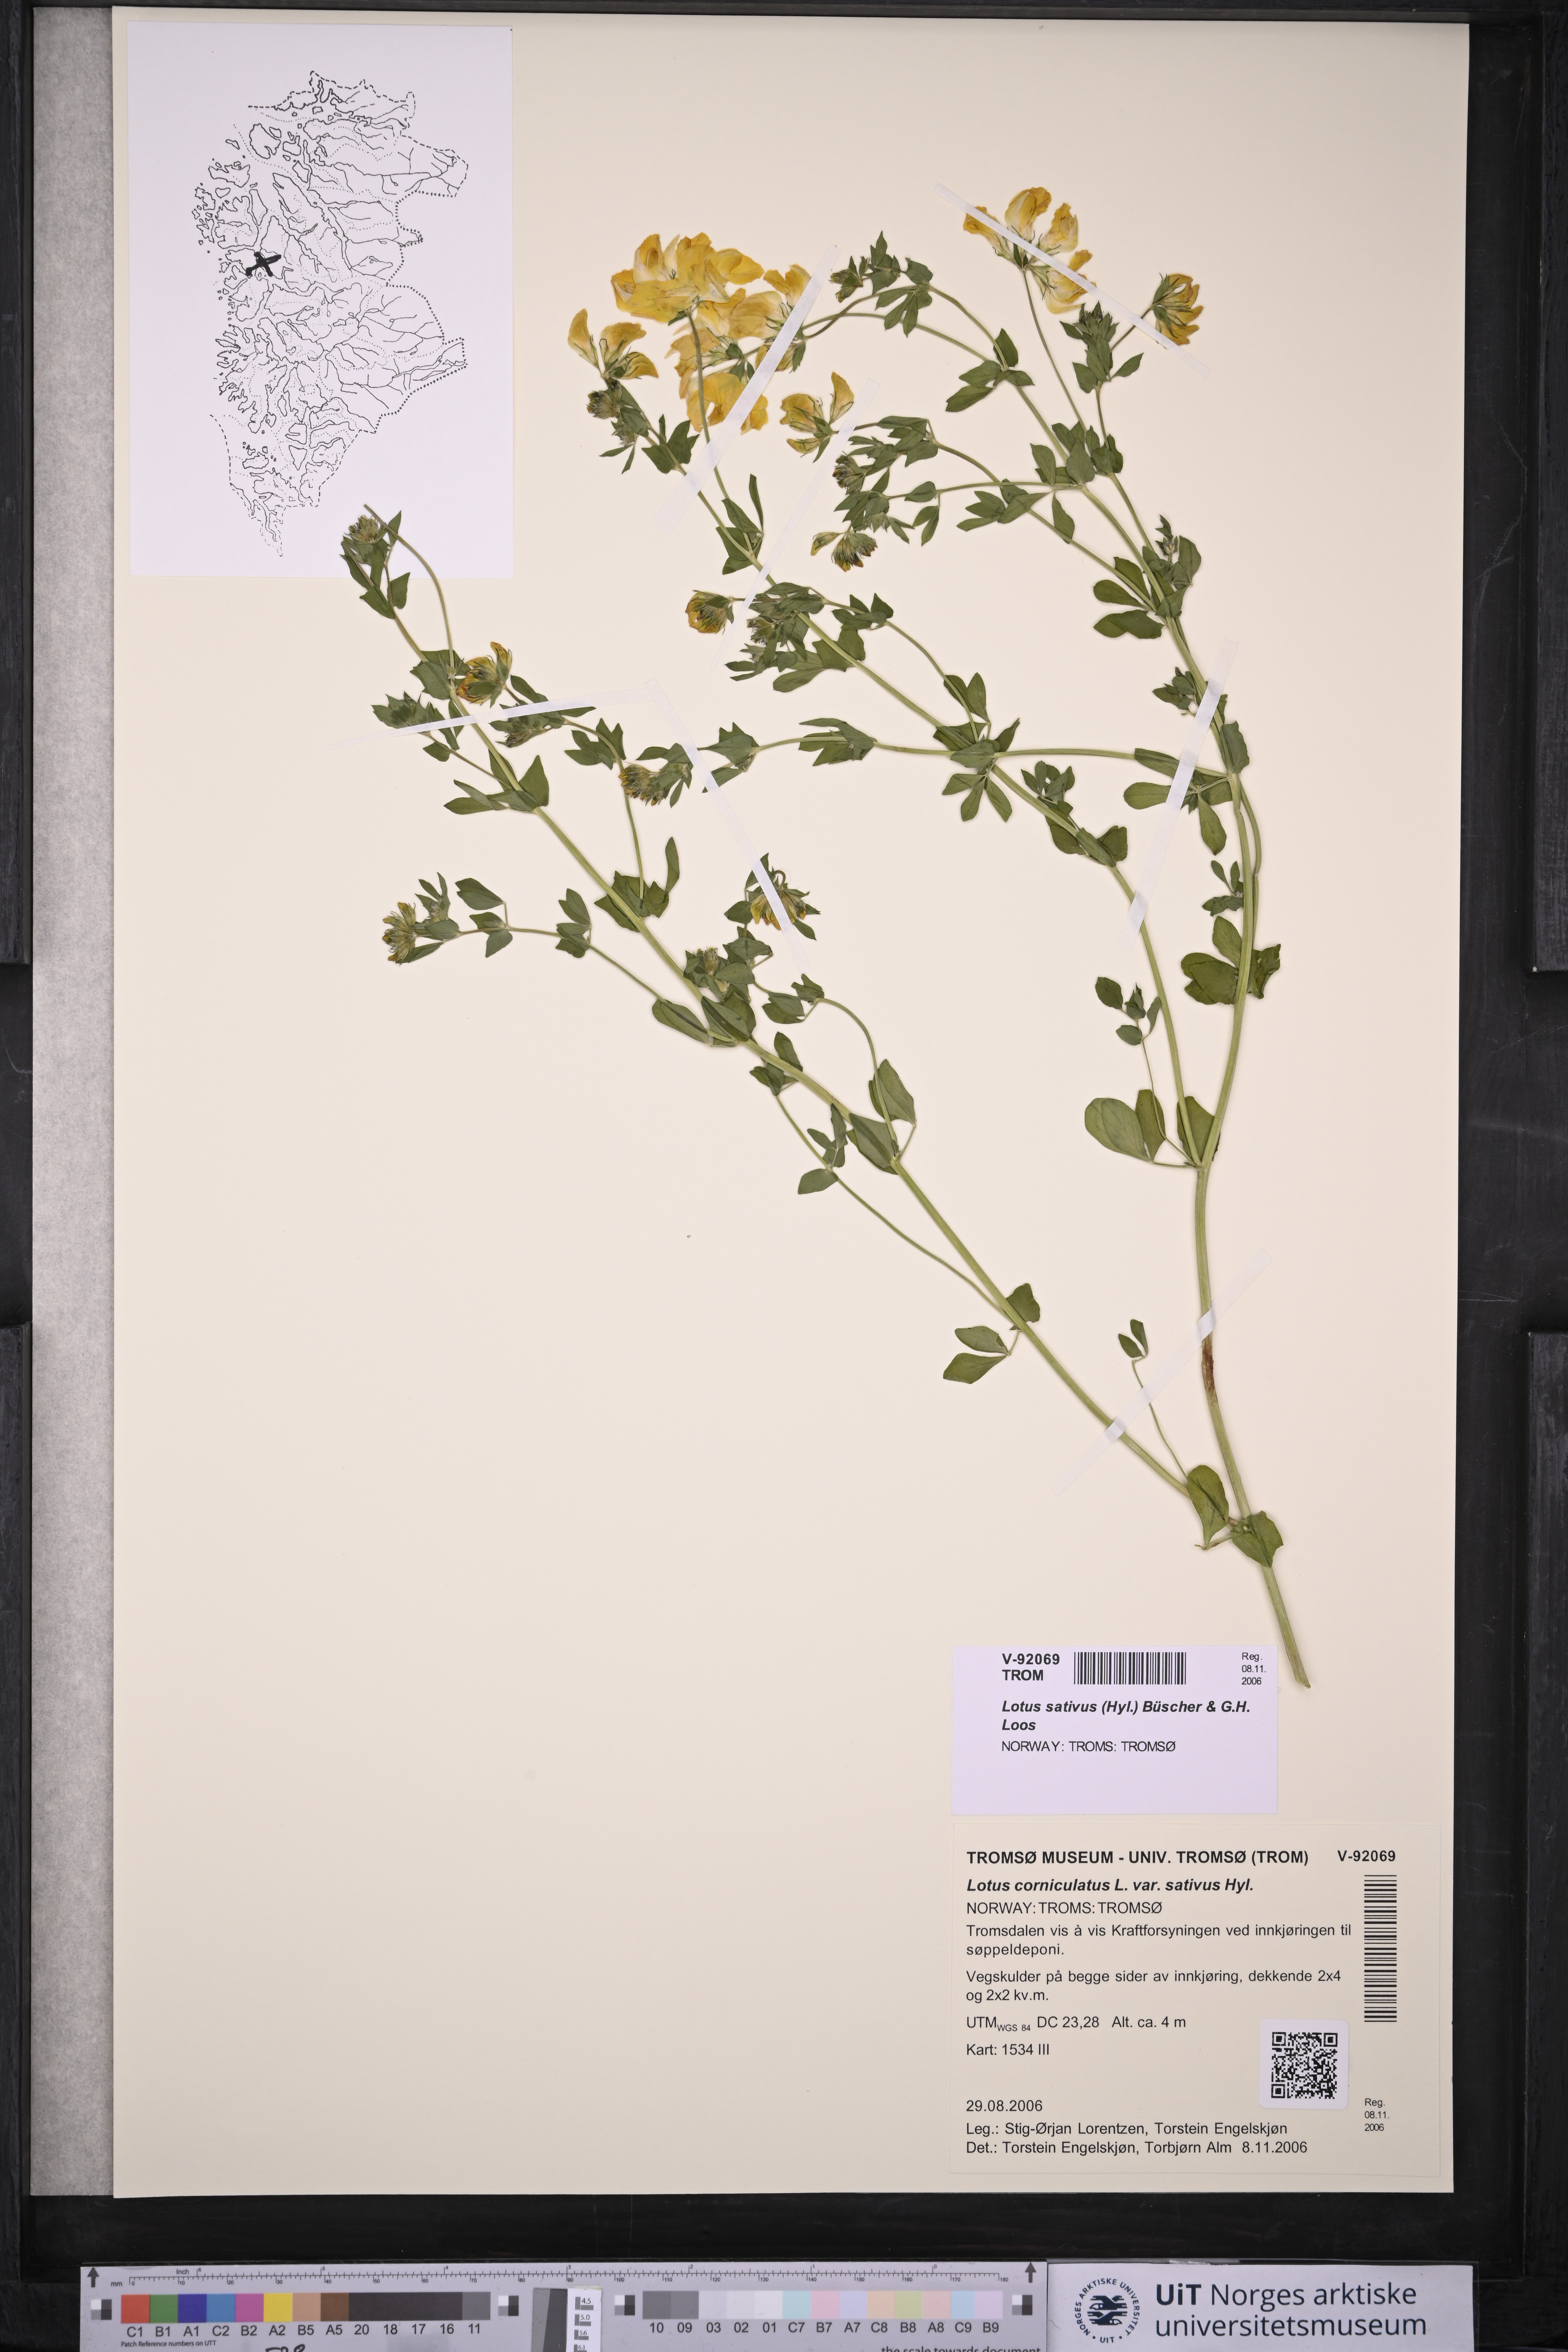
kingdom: Plantae
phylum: Tracheophyta
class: Magnoliopsida
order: Fabales
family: Fabaceae
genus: Lotus
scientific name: Lotus corniculatus
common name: Common bird's-foot-trefoil
